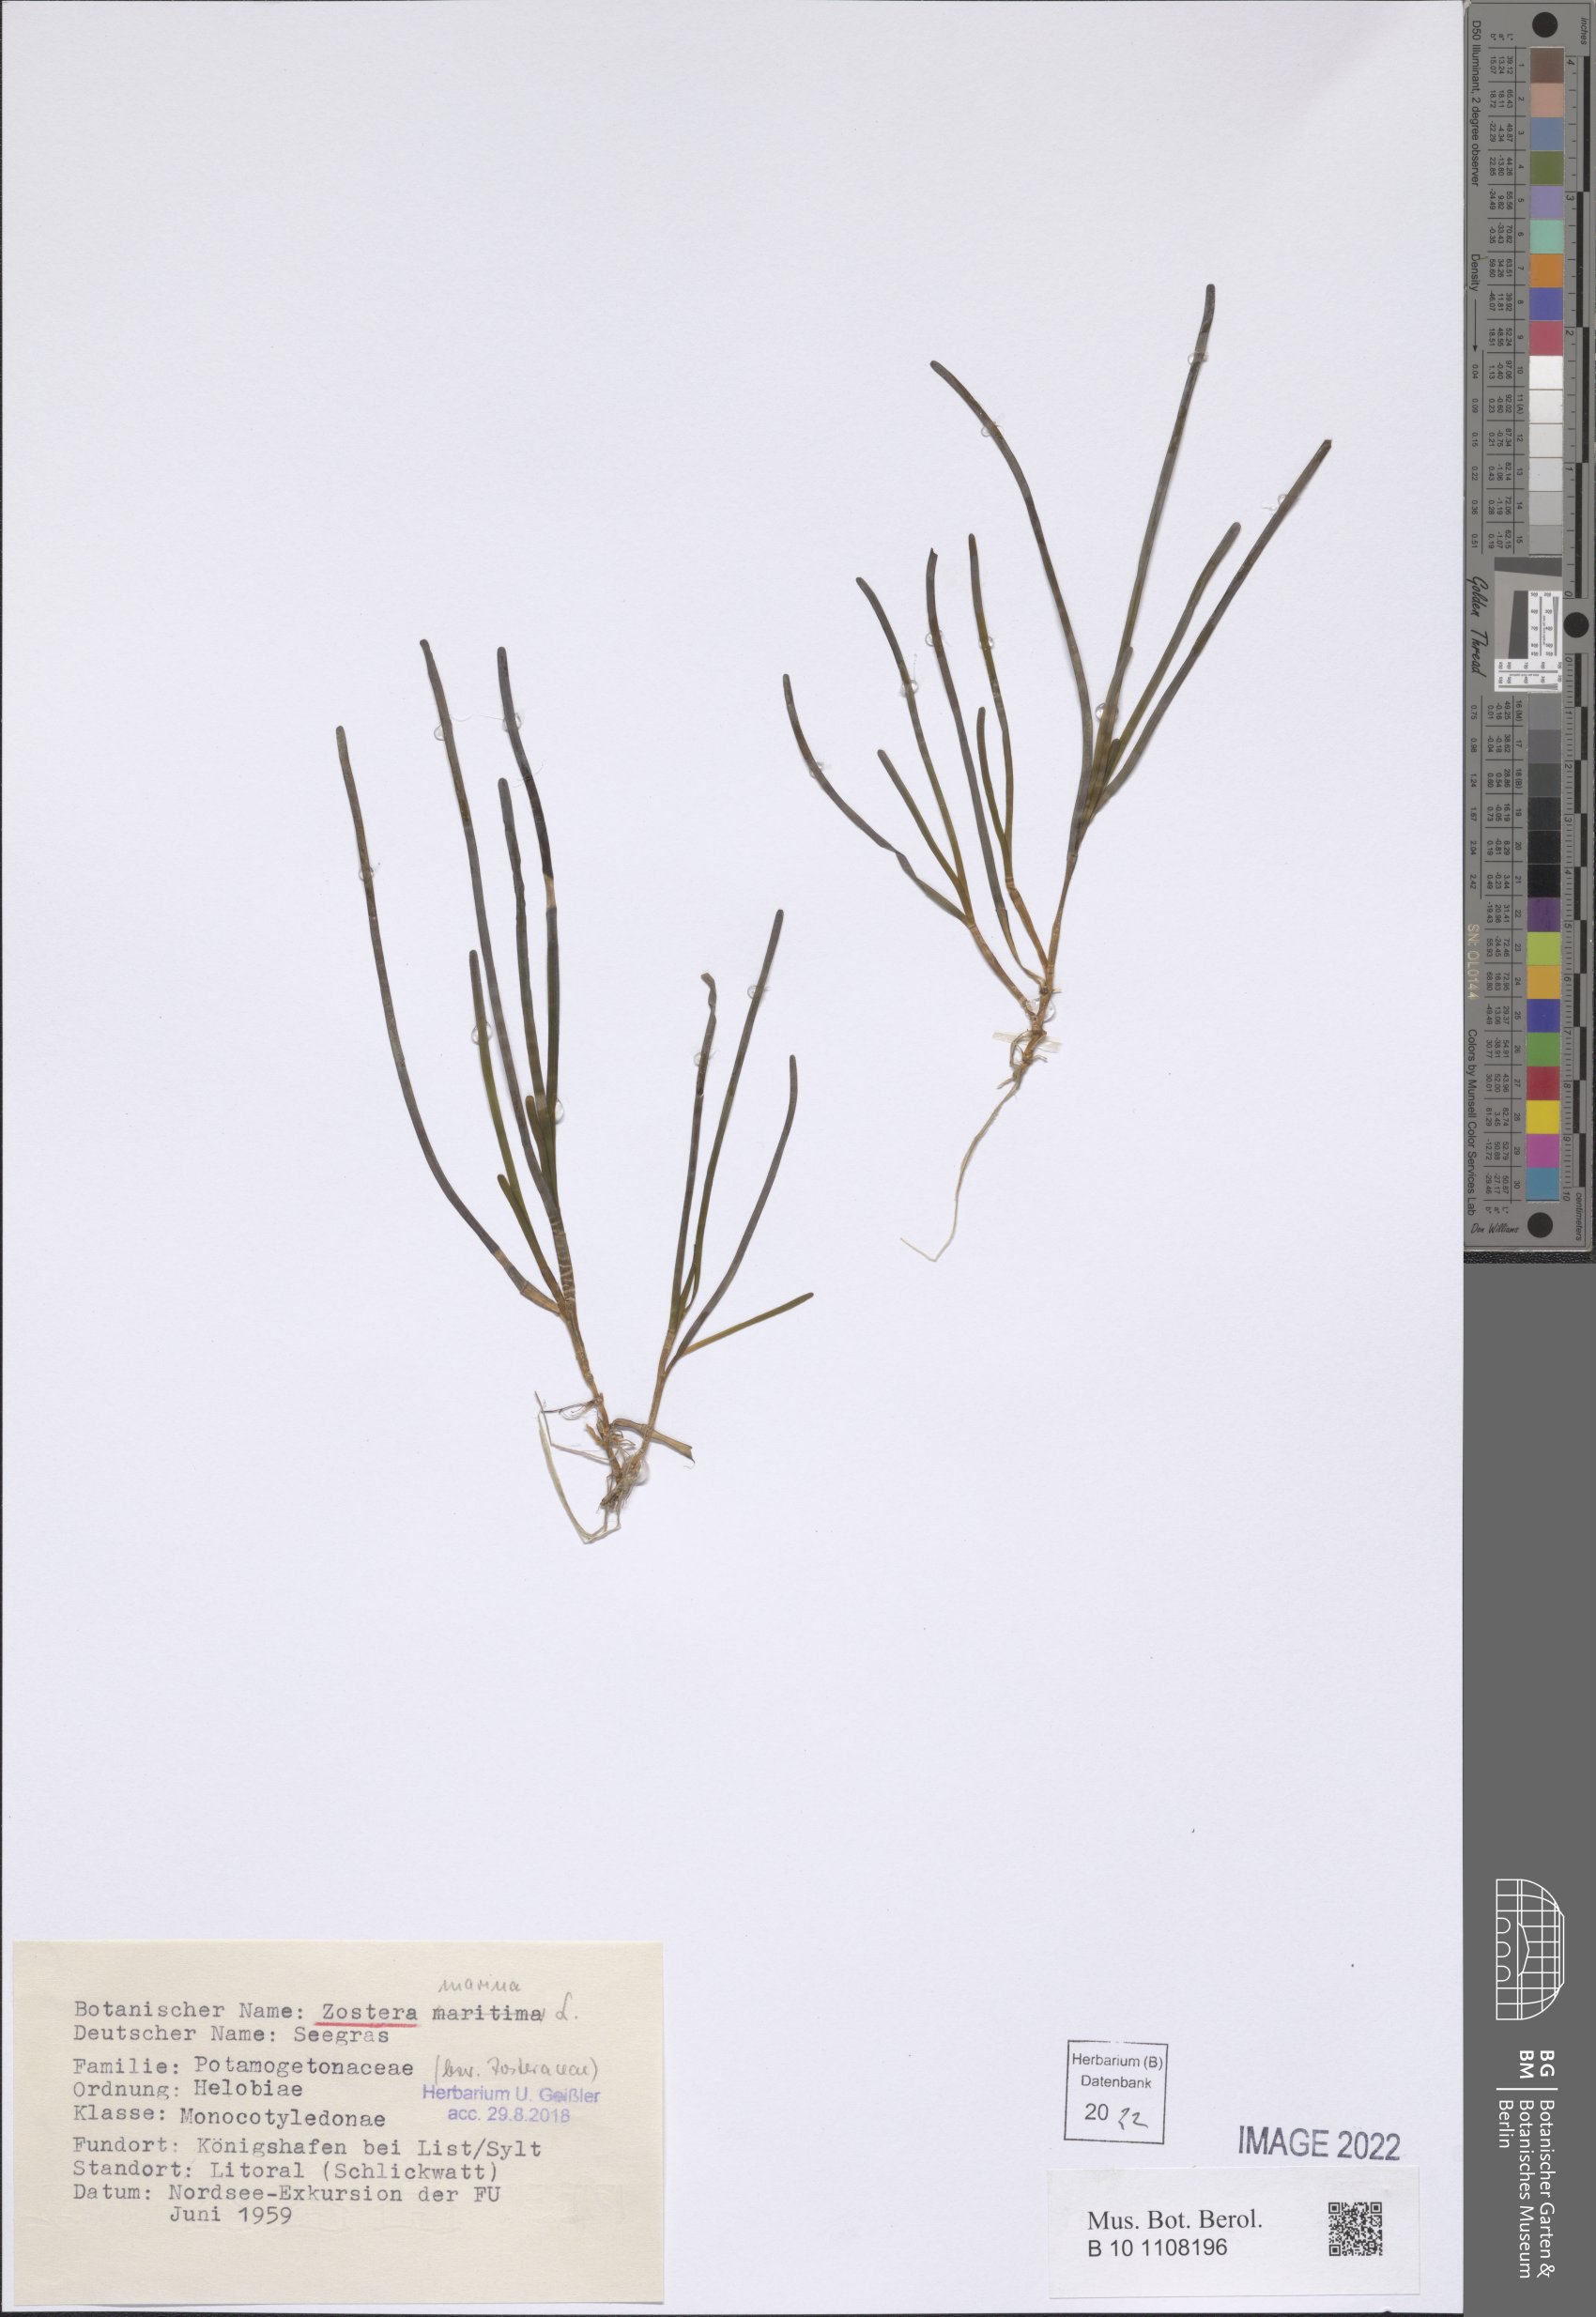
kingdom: Plantae
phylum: Tracheophyta
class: Liliopsida
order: Alismatales
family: Zosteraceae
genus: Zostera
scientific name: Zostera marina
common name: Eelgrass
